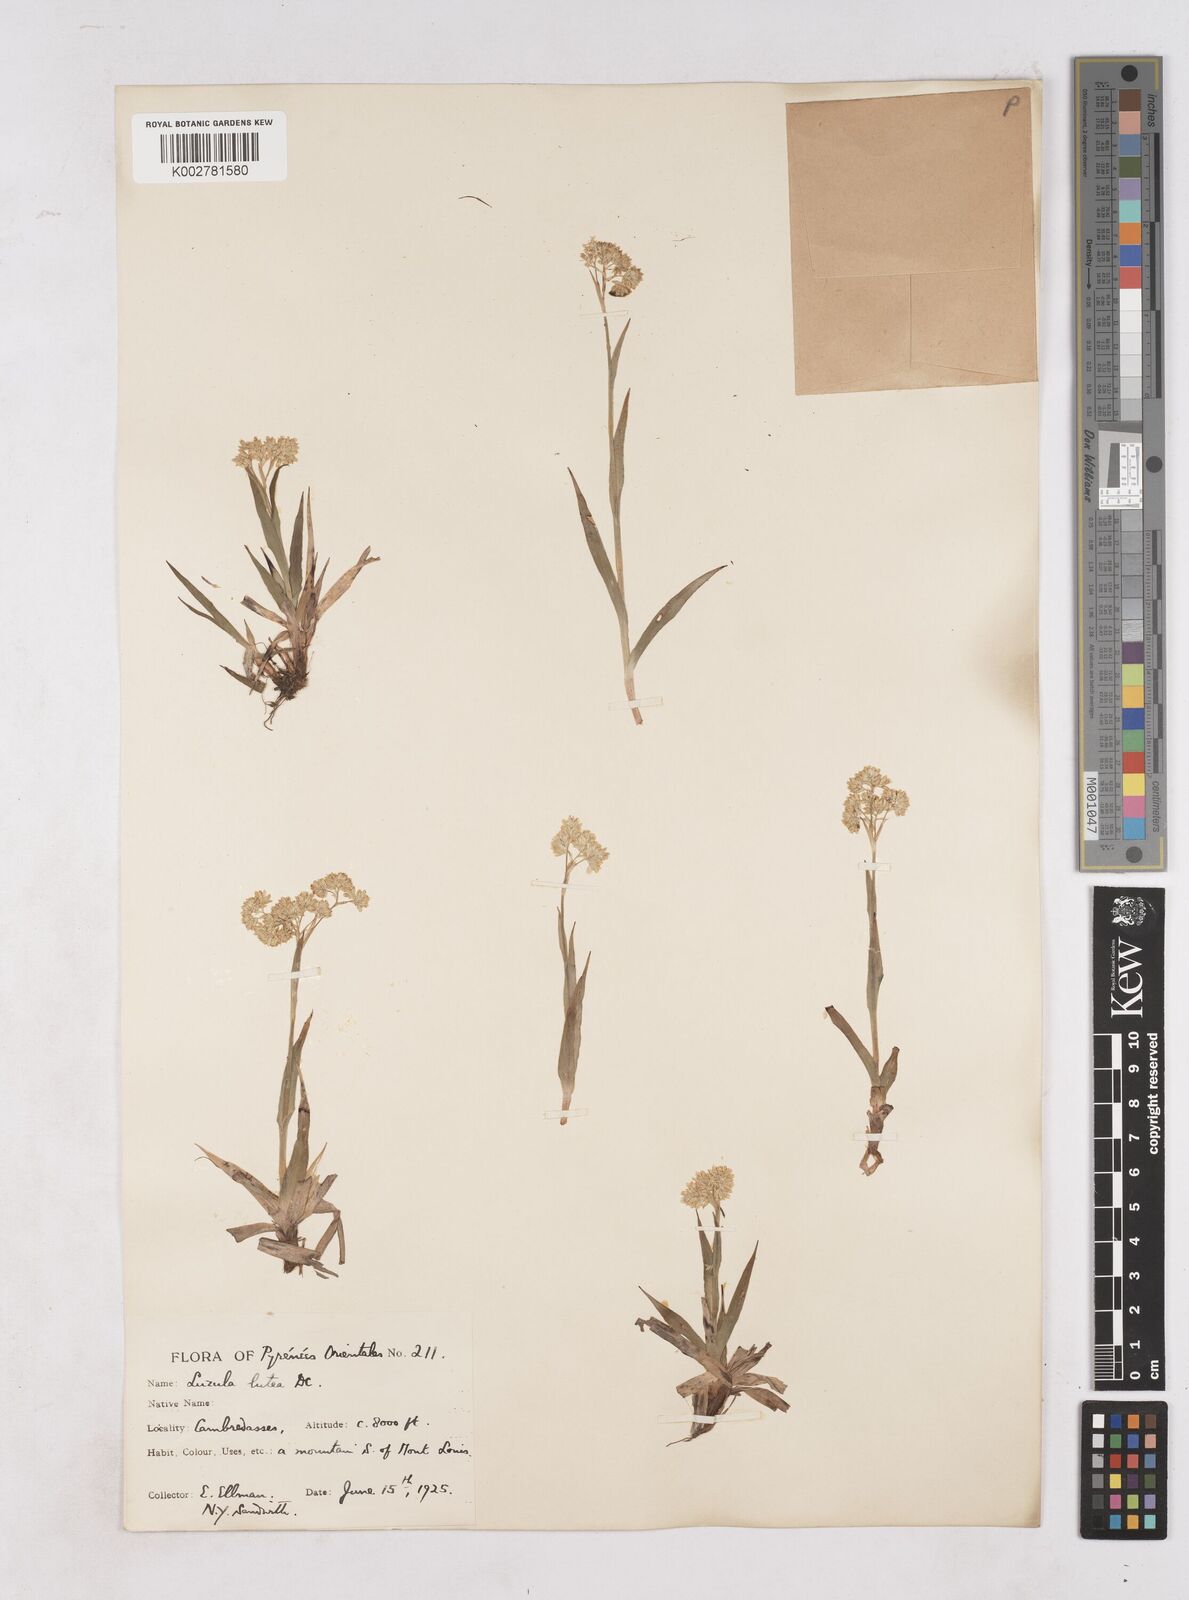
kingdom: Plantae
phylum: Tracheophyta
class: Liliopsida
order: Poales
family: Juncaceae
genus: Luzula
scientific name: Luzula lutea
